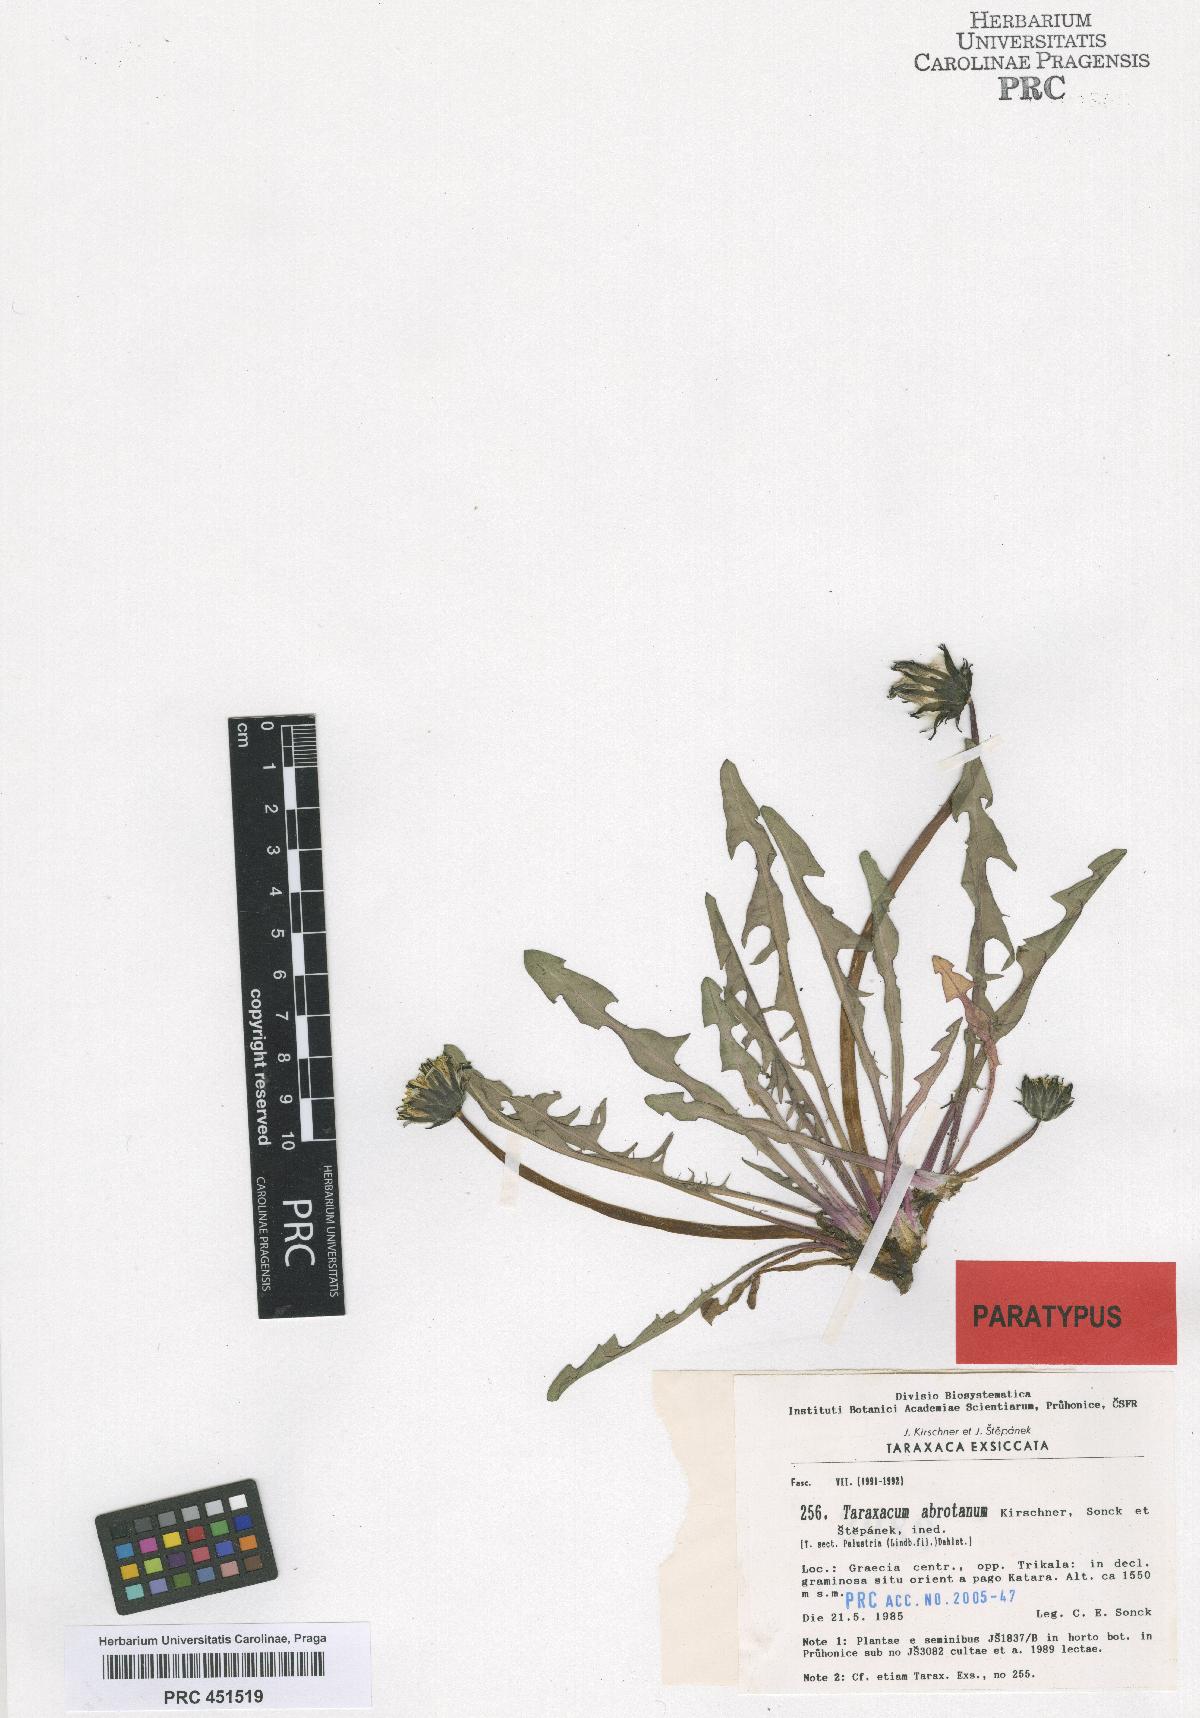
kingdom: Plantae
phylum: Tracheophyta
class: Magnoliopsida
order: Asterales
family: Asteraceae
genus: Taraxacum
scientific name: Taraxacum apiculatiforme
